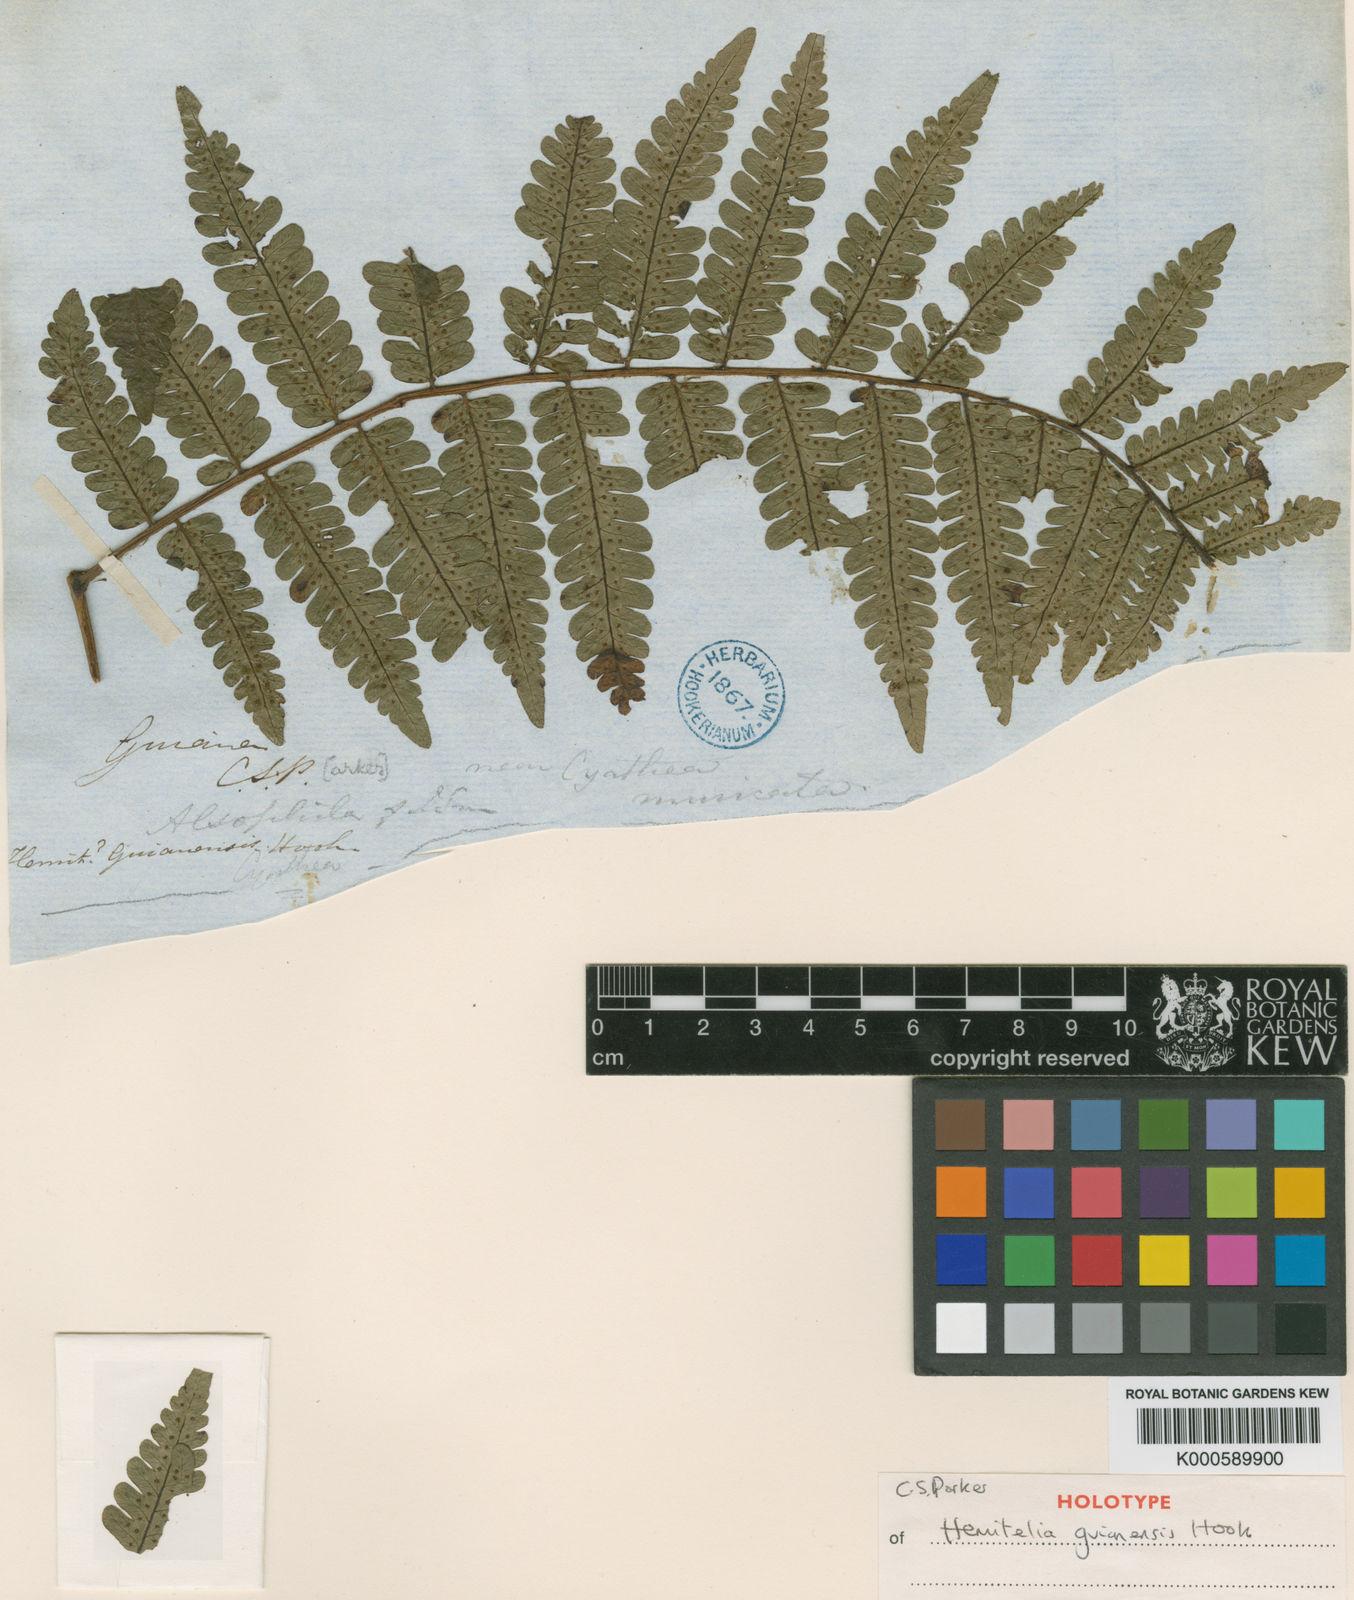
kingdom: Plantae
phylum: Tracheophyta
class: Polypodiopsida
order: Cyatheales
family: Cyatheaceae
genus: Cyathea
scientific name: Cyathea surinamensis
